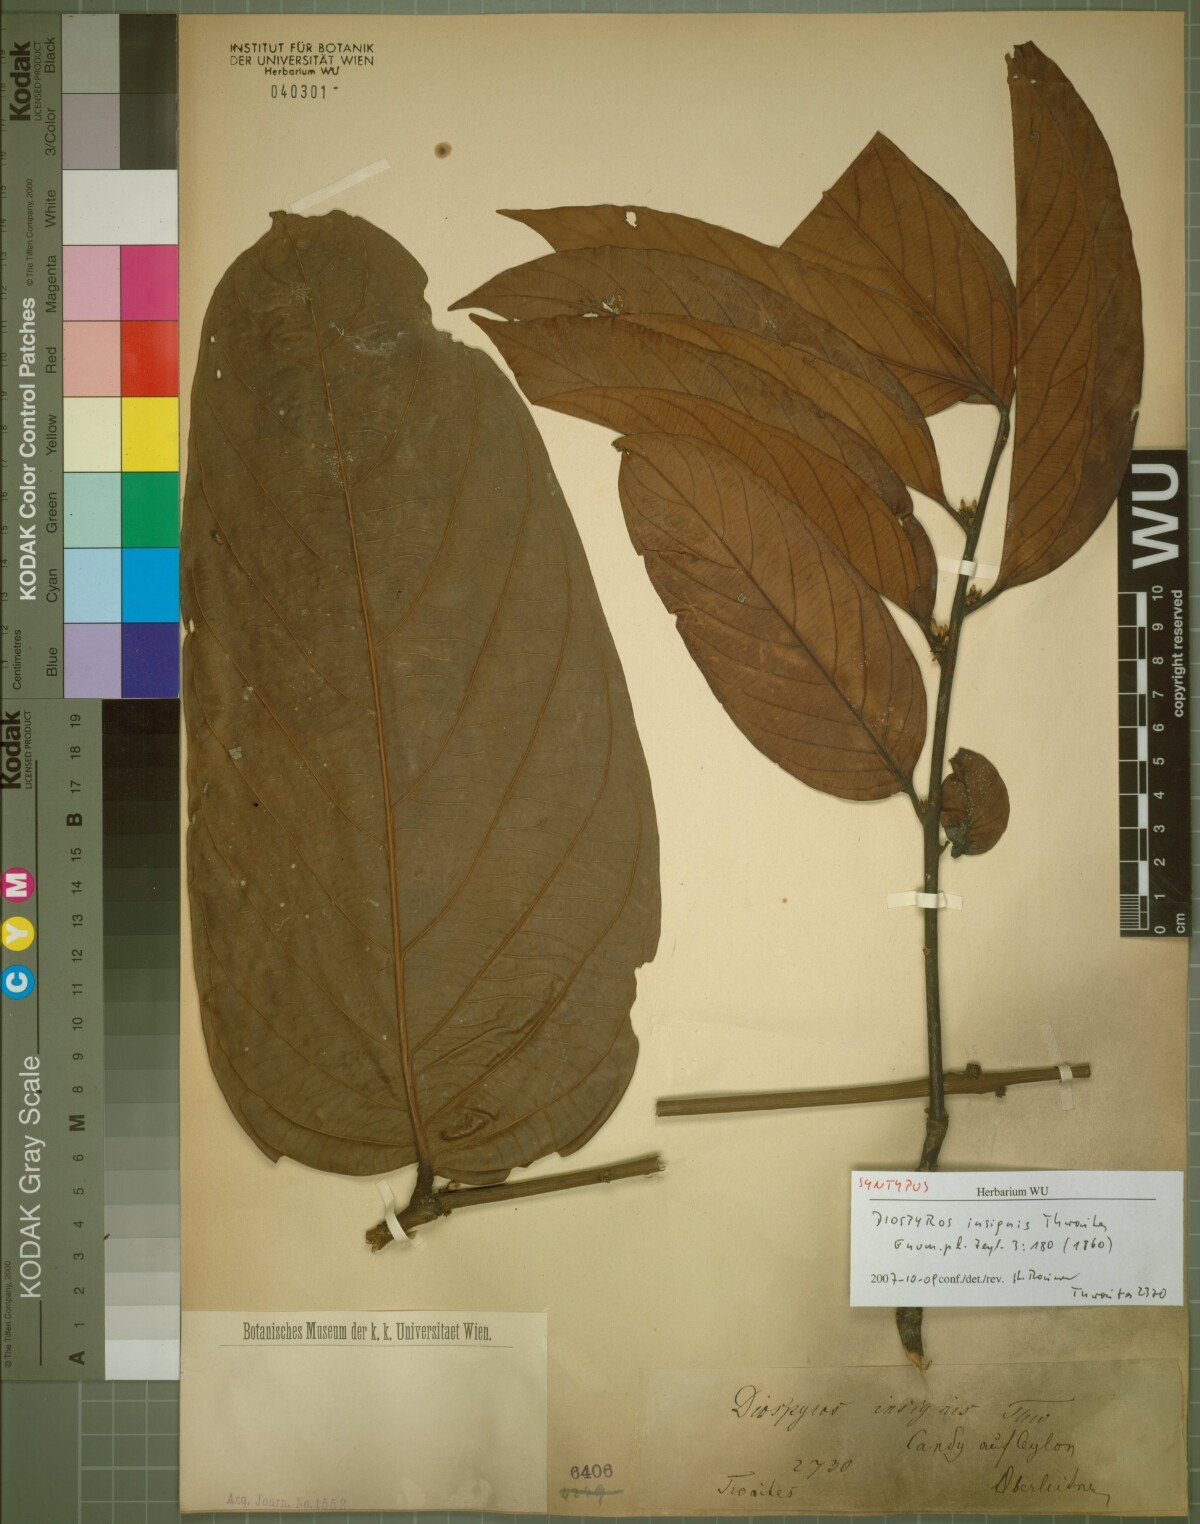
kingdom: Plantae
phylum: Tracheophyta
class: Magnoliopsida
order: Ericales
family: Ebenaceae
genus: Diospyros
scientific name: Diospyros insignis
